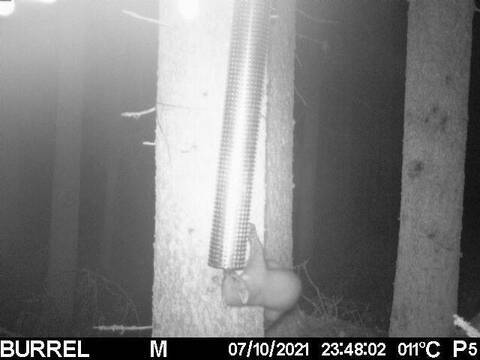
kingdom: Animalia
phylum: Chordata
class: Mammalia
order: Carnivora
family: Mustelidae
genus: Martes
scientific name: Martes martes
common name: European pine marten
